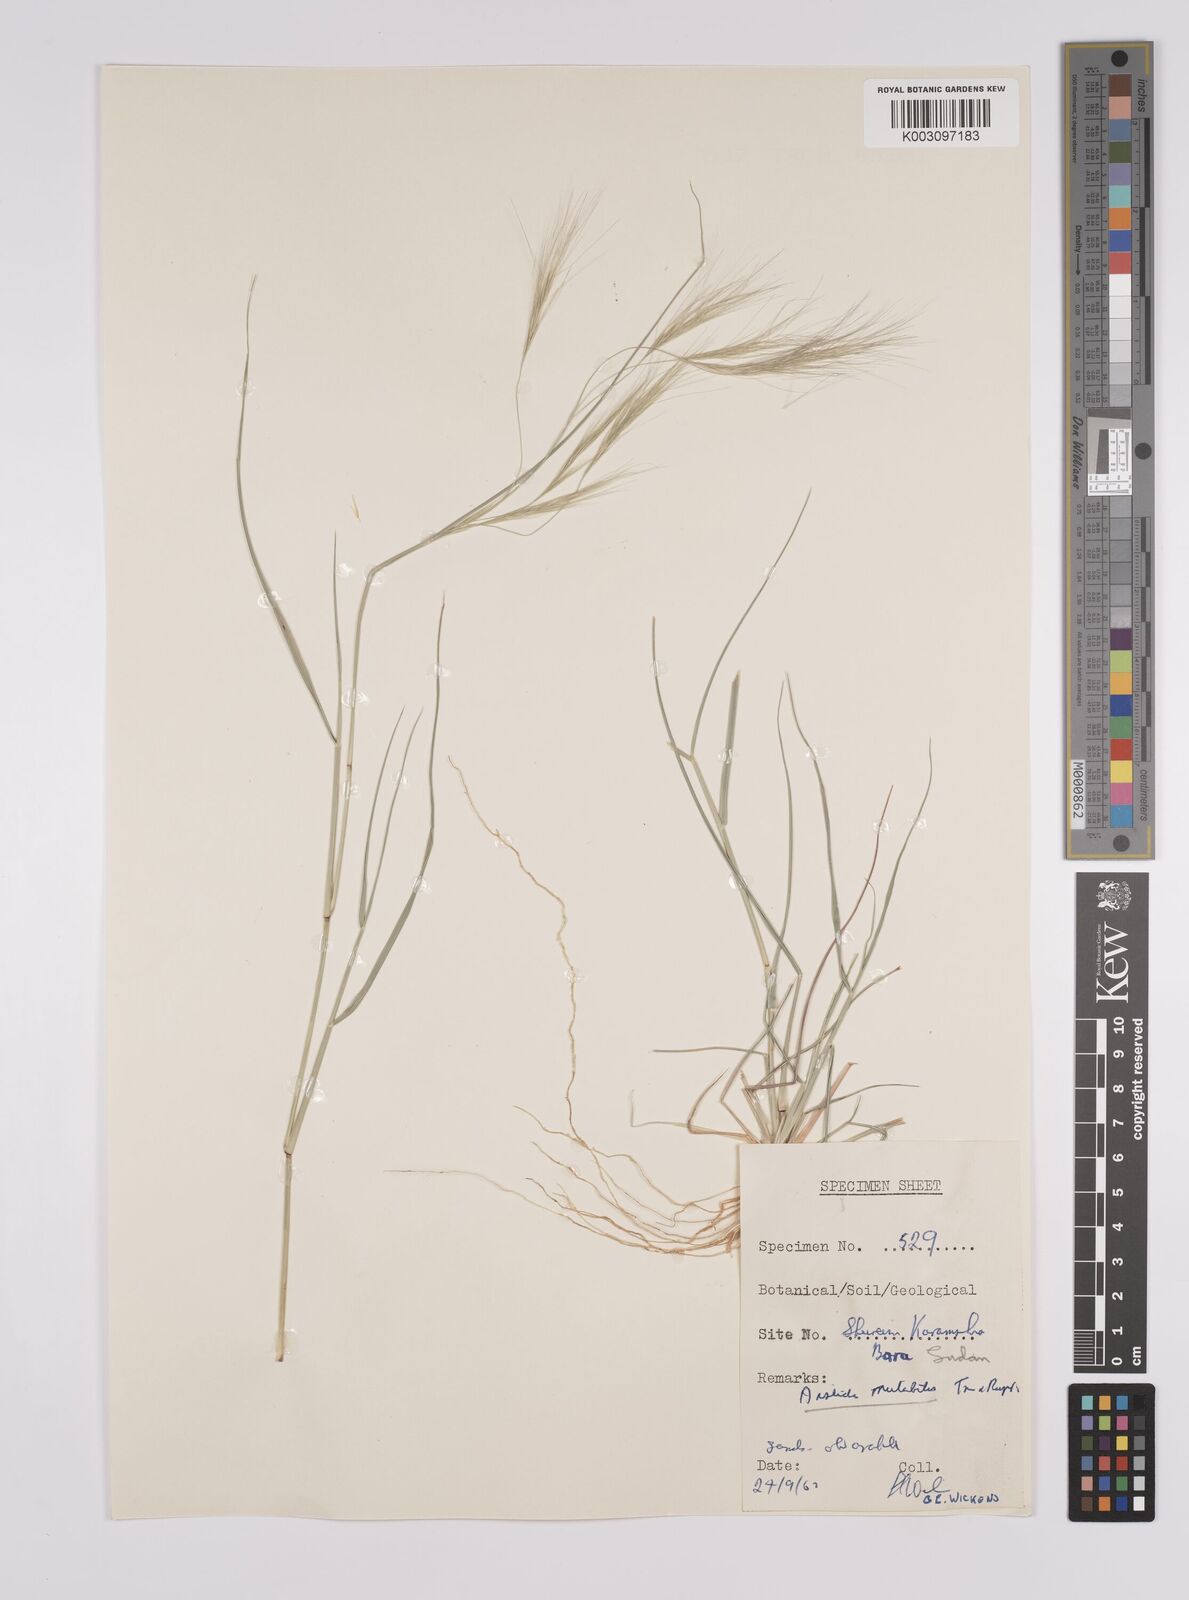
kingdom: Plantae
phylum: Tracheophyta
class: Liliopsida
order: Poales
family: Poaceae
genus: Aristida
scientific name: Aristida mutabilis
